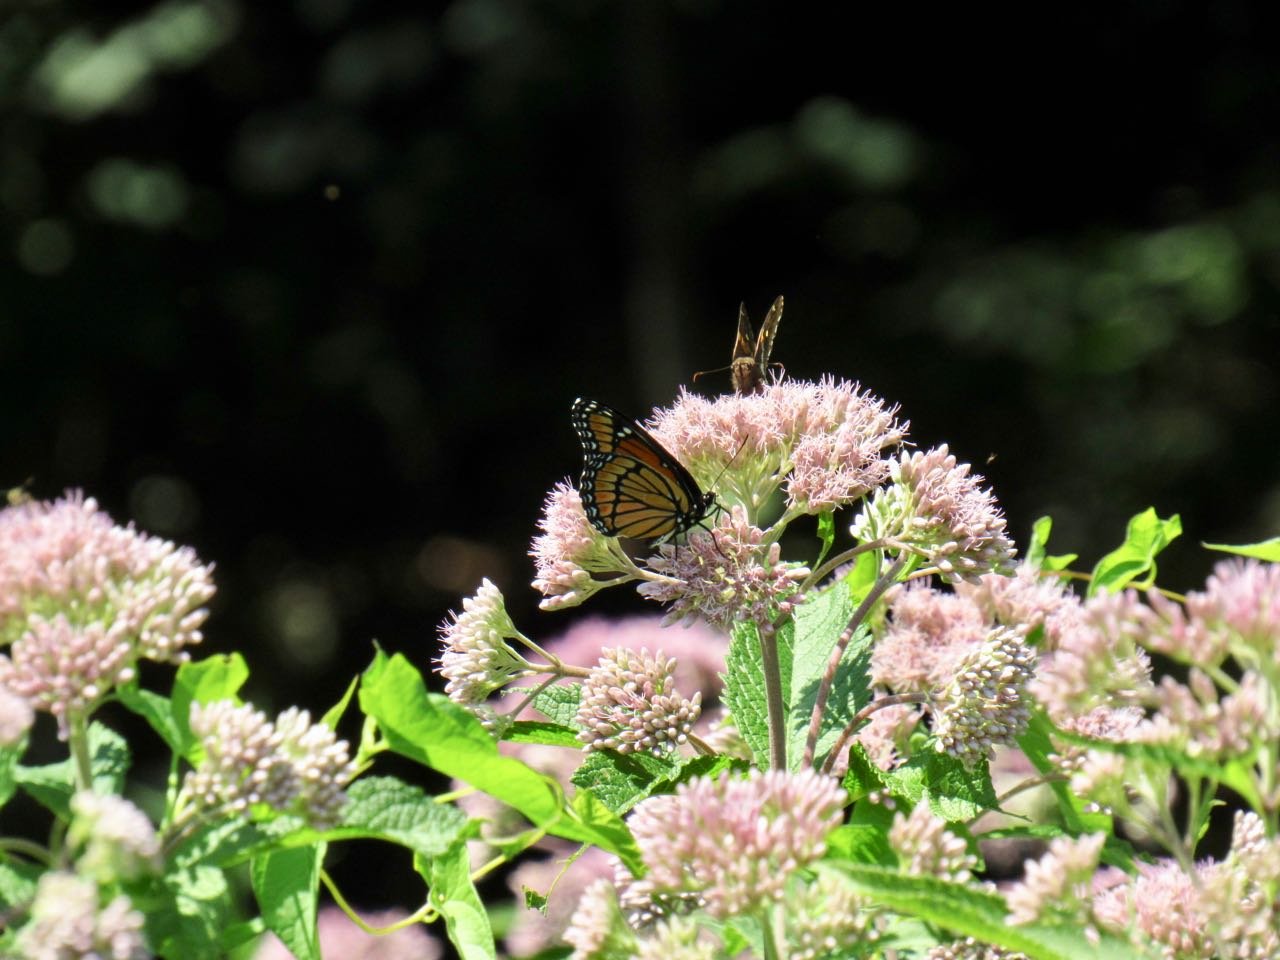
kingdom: Animalia
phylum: Arthropoda
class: Insecta
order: Lepidoptera
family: Nymphalidae
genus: Limenitis
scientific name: Limenitis archippus
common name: Viceroy
